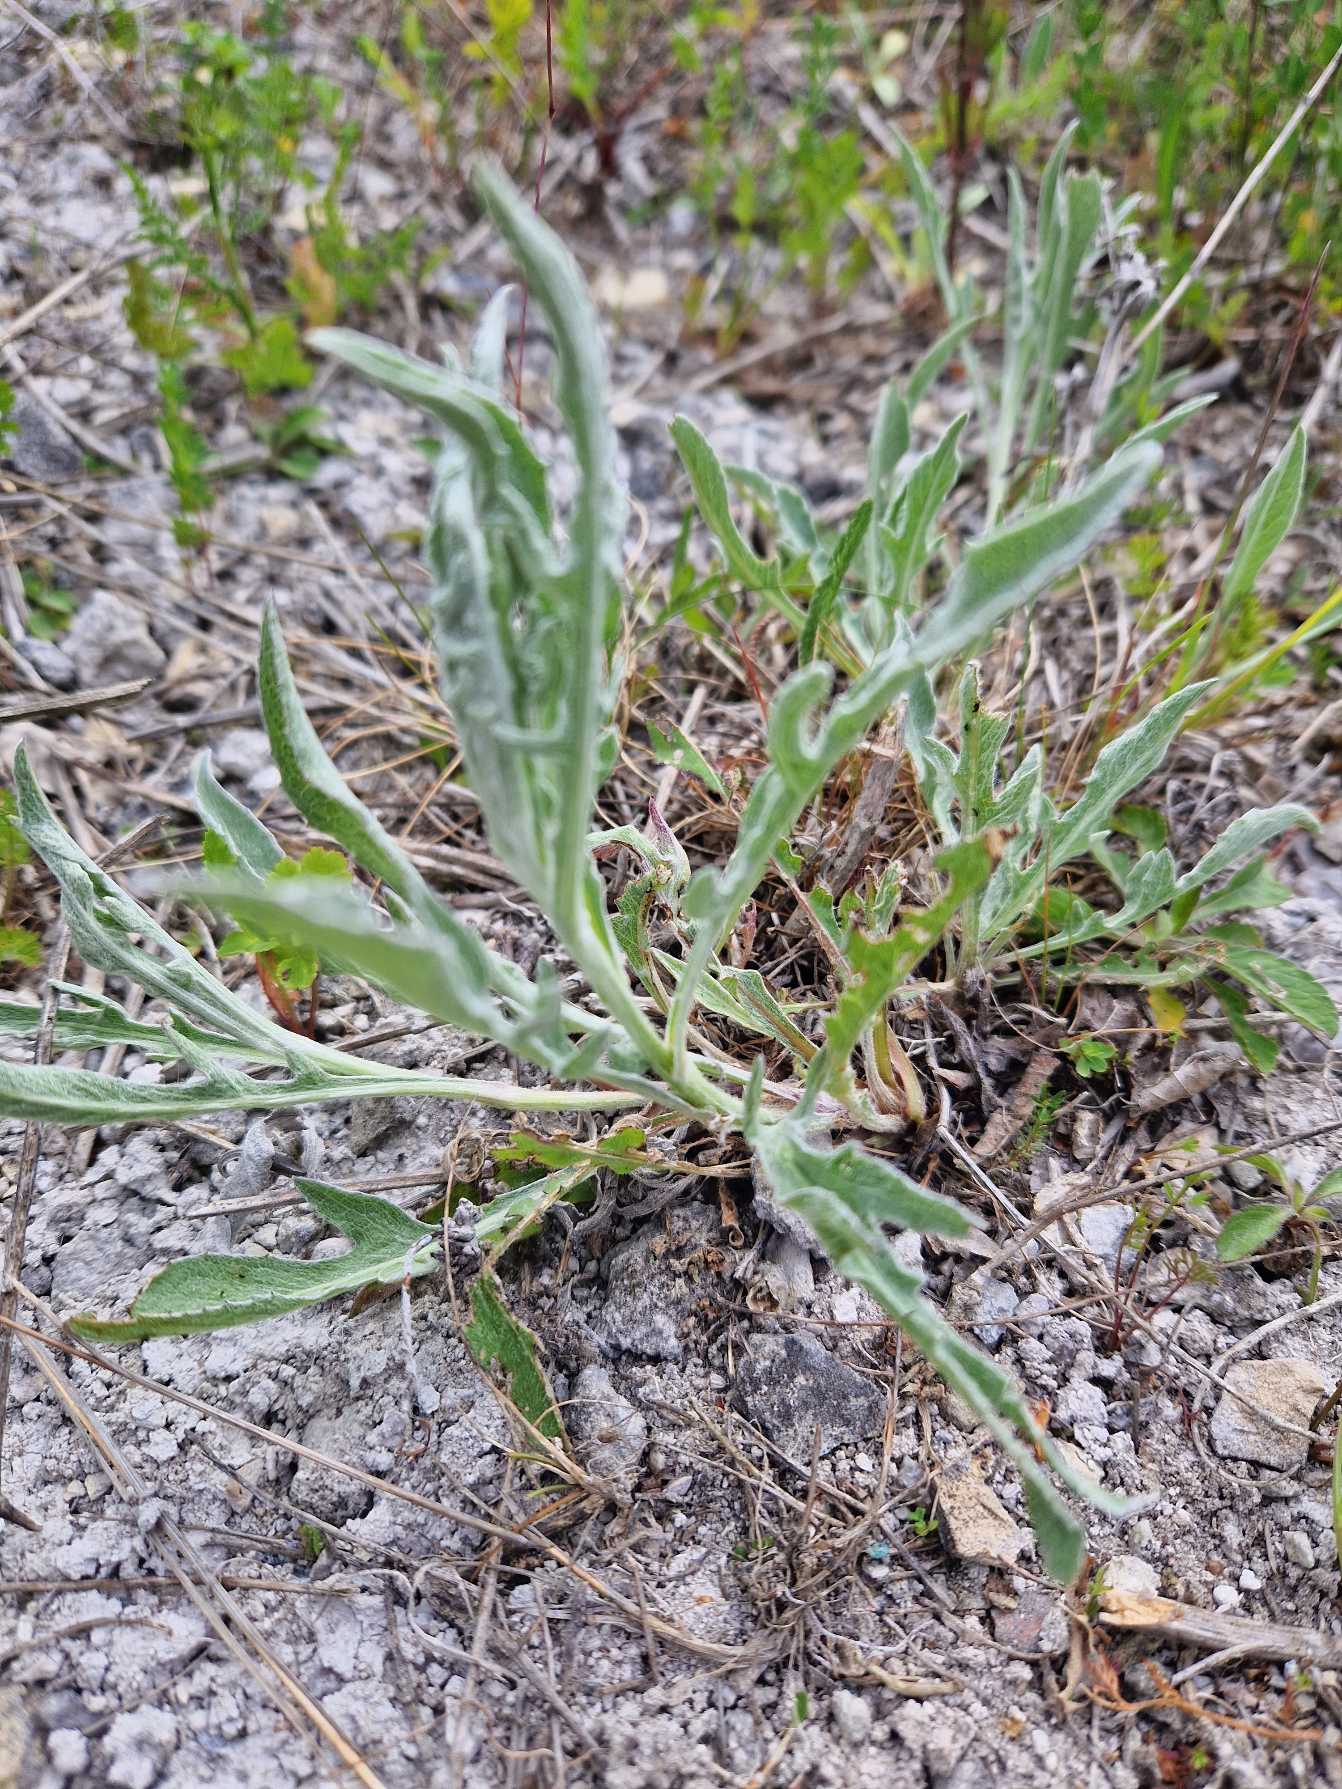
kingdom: Plantae
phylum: Tracheophyta
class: Magnoliopsida
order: Asterales
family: Asteraceae
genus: Centaurea
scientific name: Centaurea jacea
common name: Almindelig knopurt
